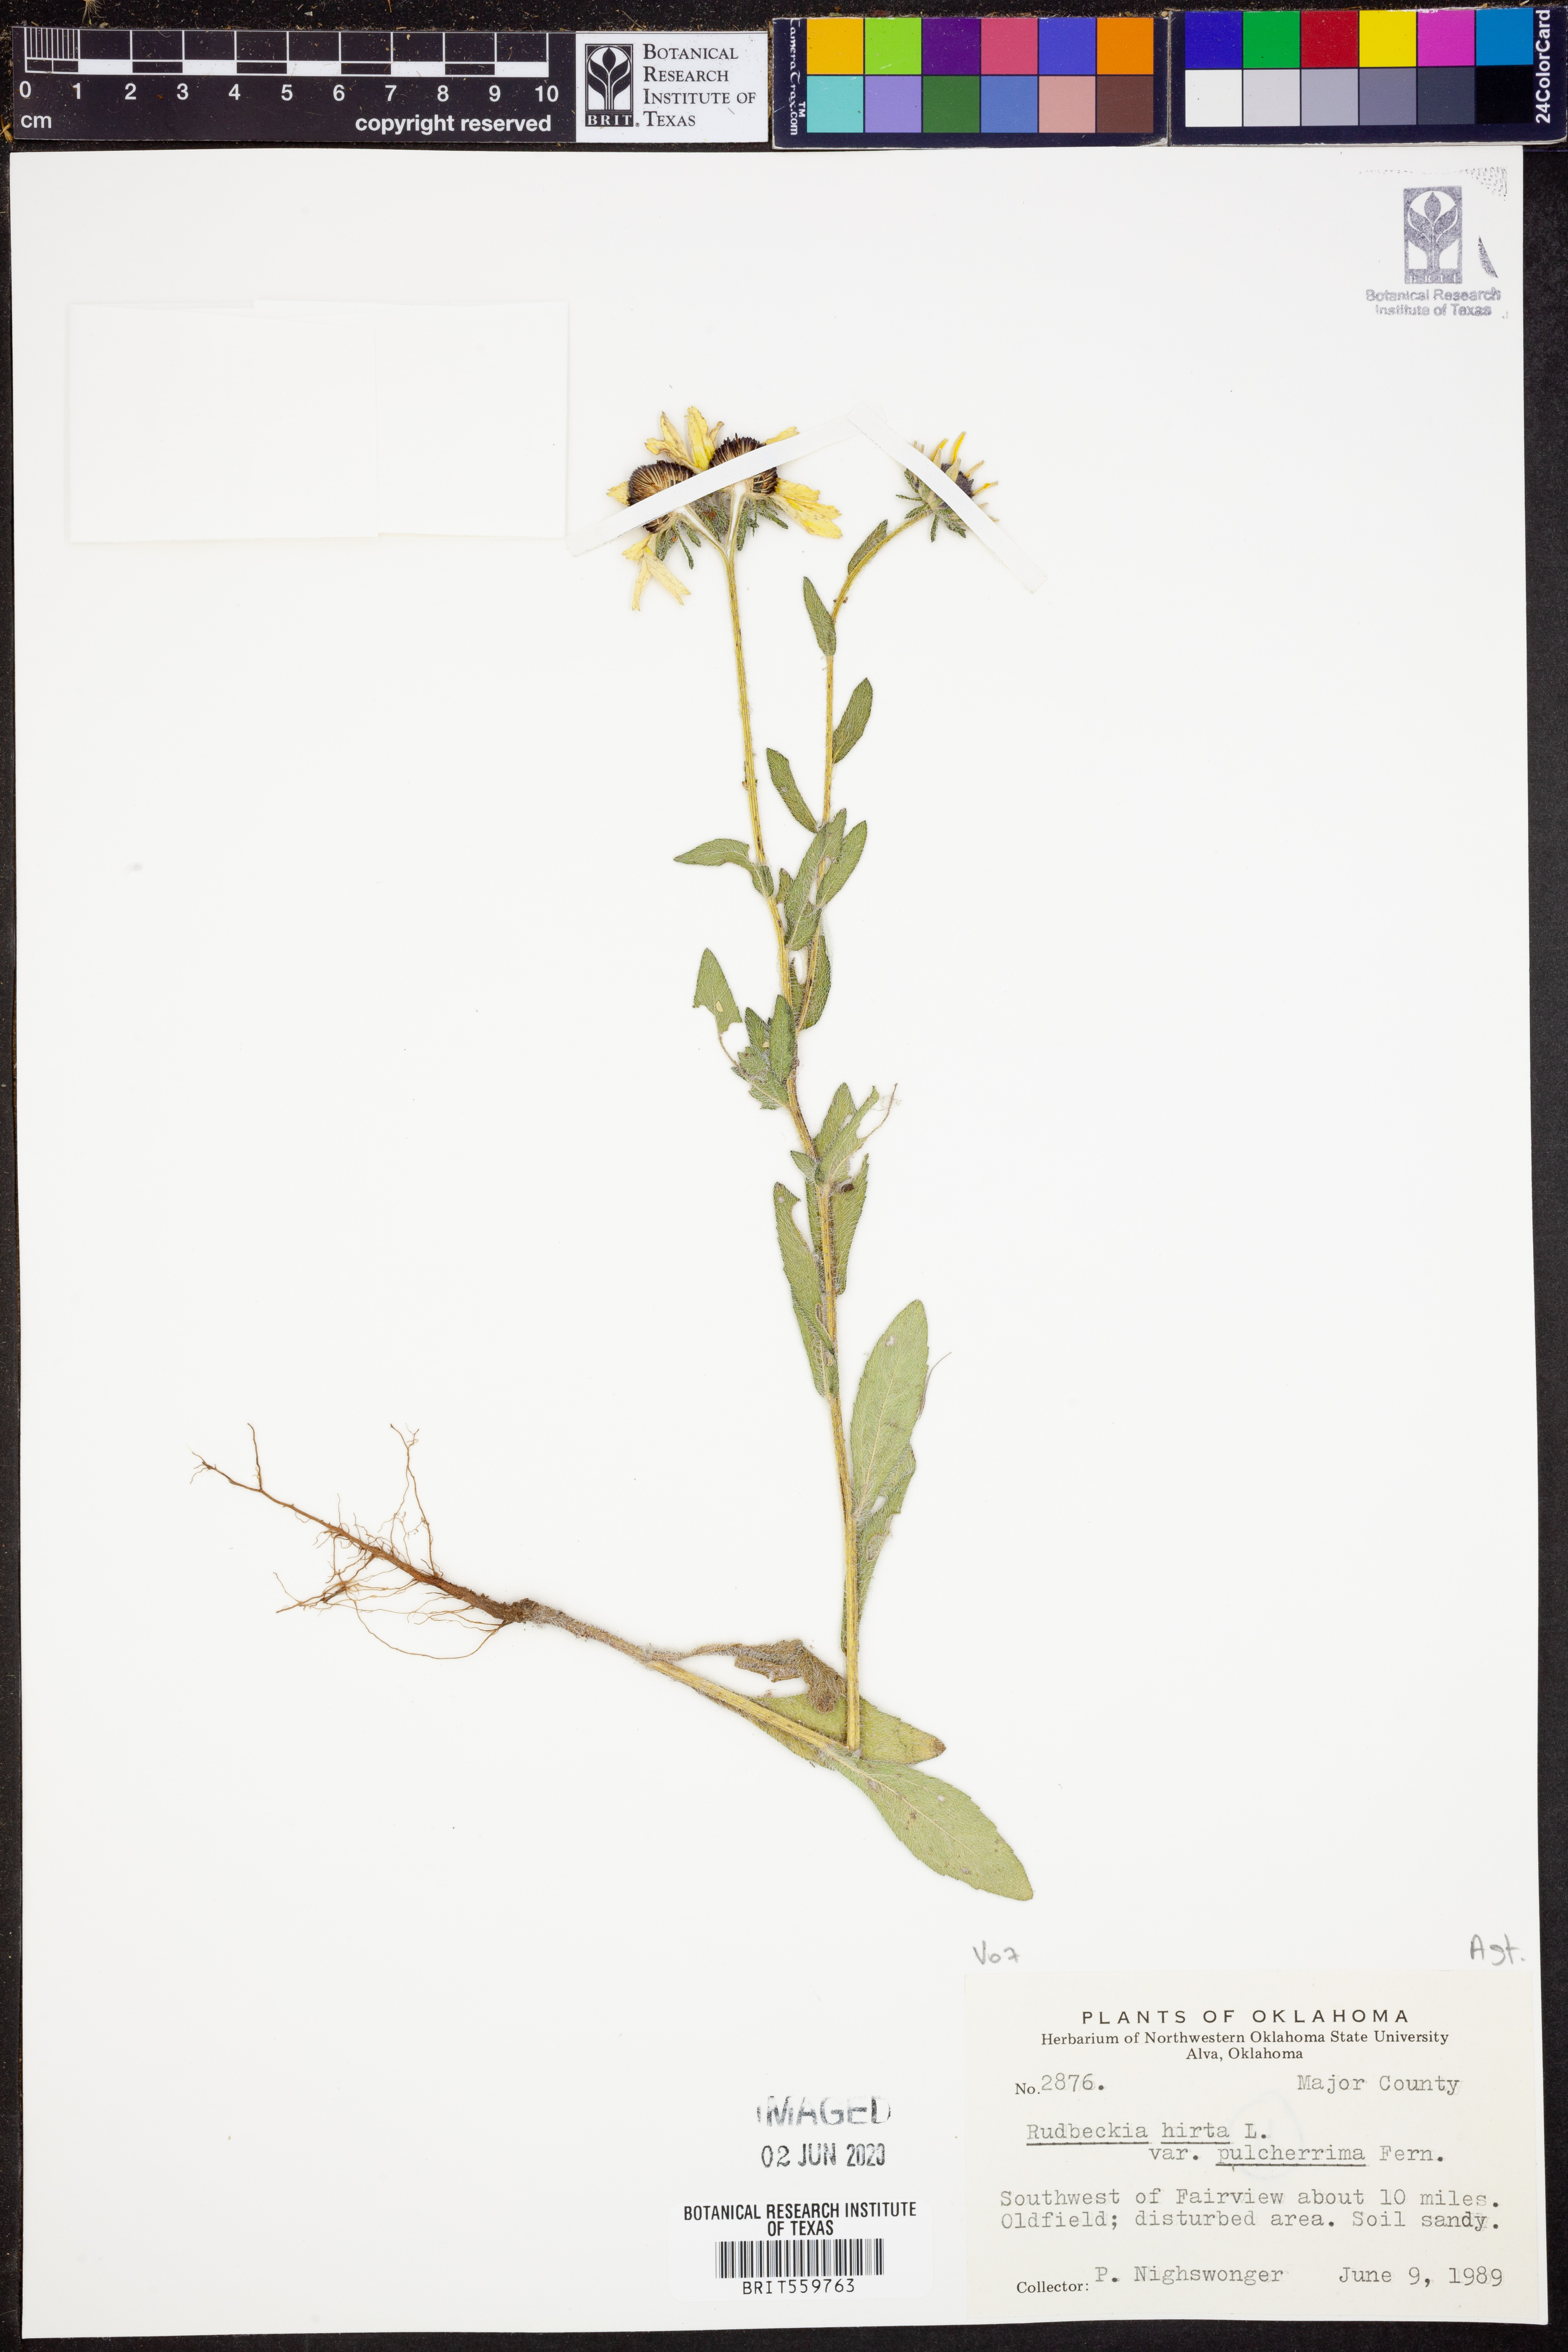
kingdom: Plantae
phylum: Tracheophyta
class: Magnoliopsida
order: Asterales
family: Asteraceae
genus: Rudbeckia
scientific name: Rudbeckia hirta
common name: Black-eyed-susan
